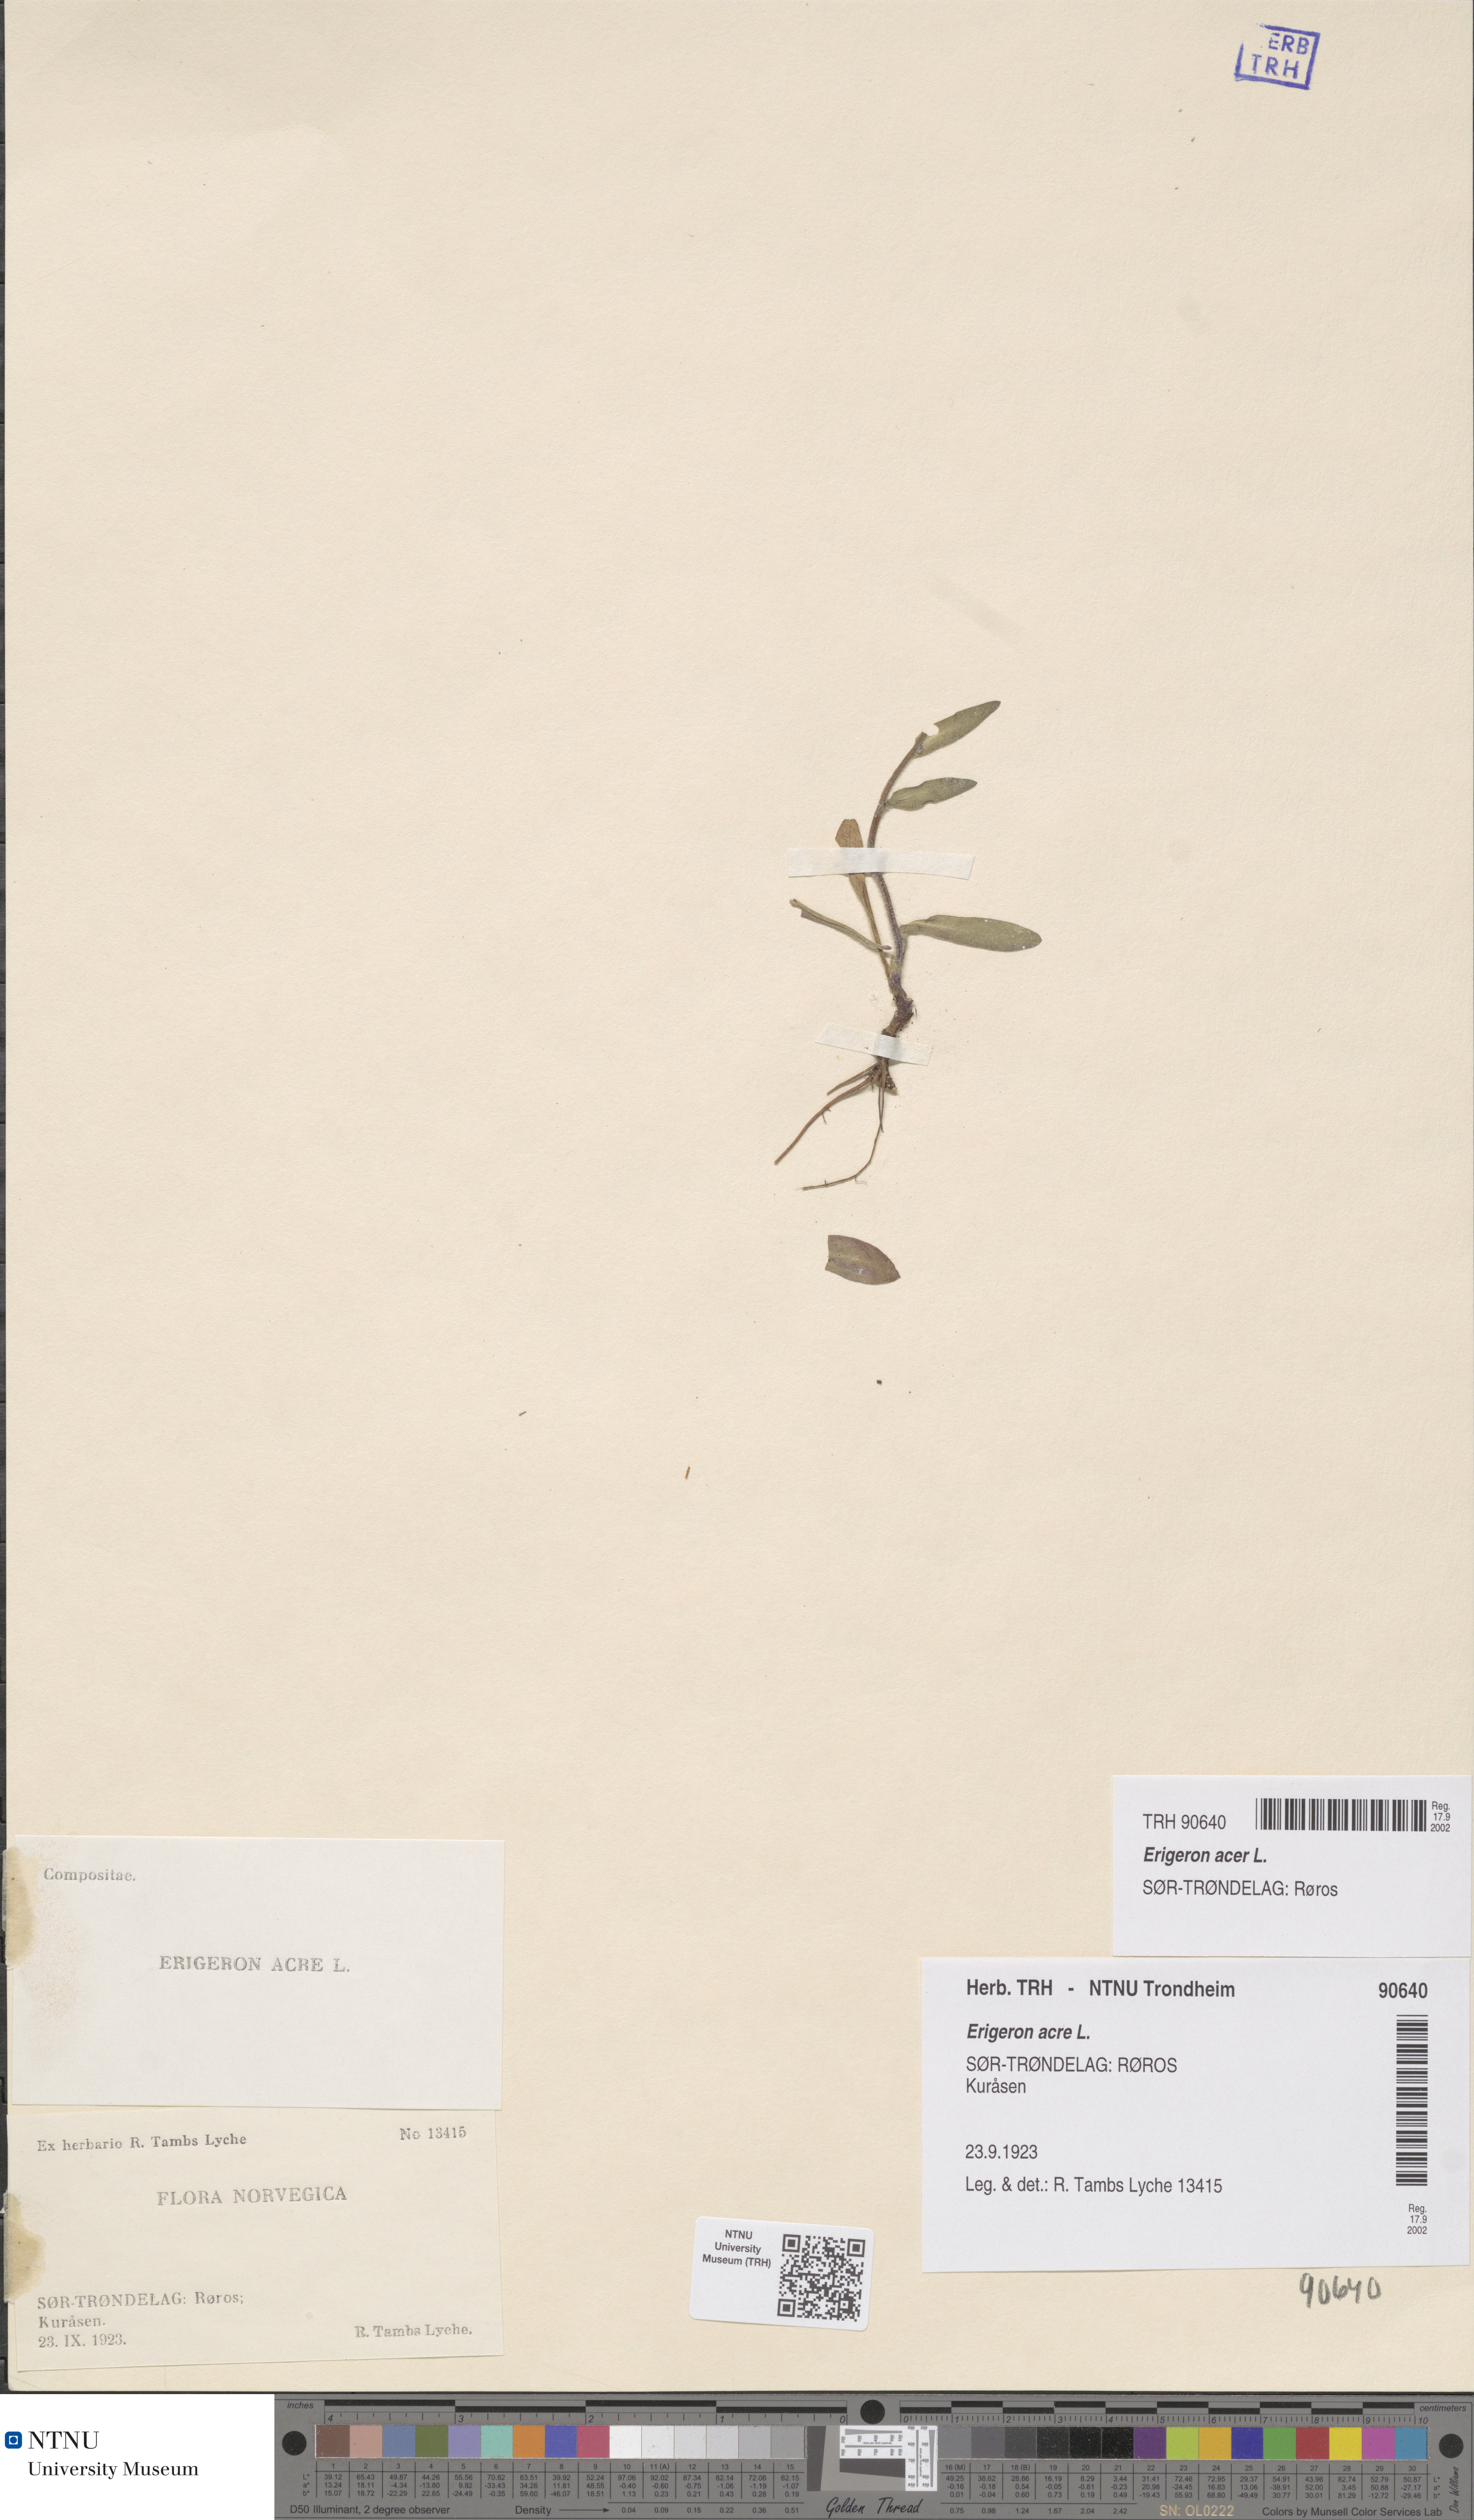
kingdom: Plantae
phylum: Tracheophyta
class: Magnoliopsida
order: Asterales
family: Asteraceae
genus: Erigeron
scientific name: Erigeron acris
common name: Blue fleabane
